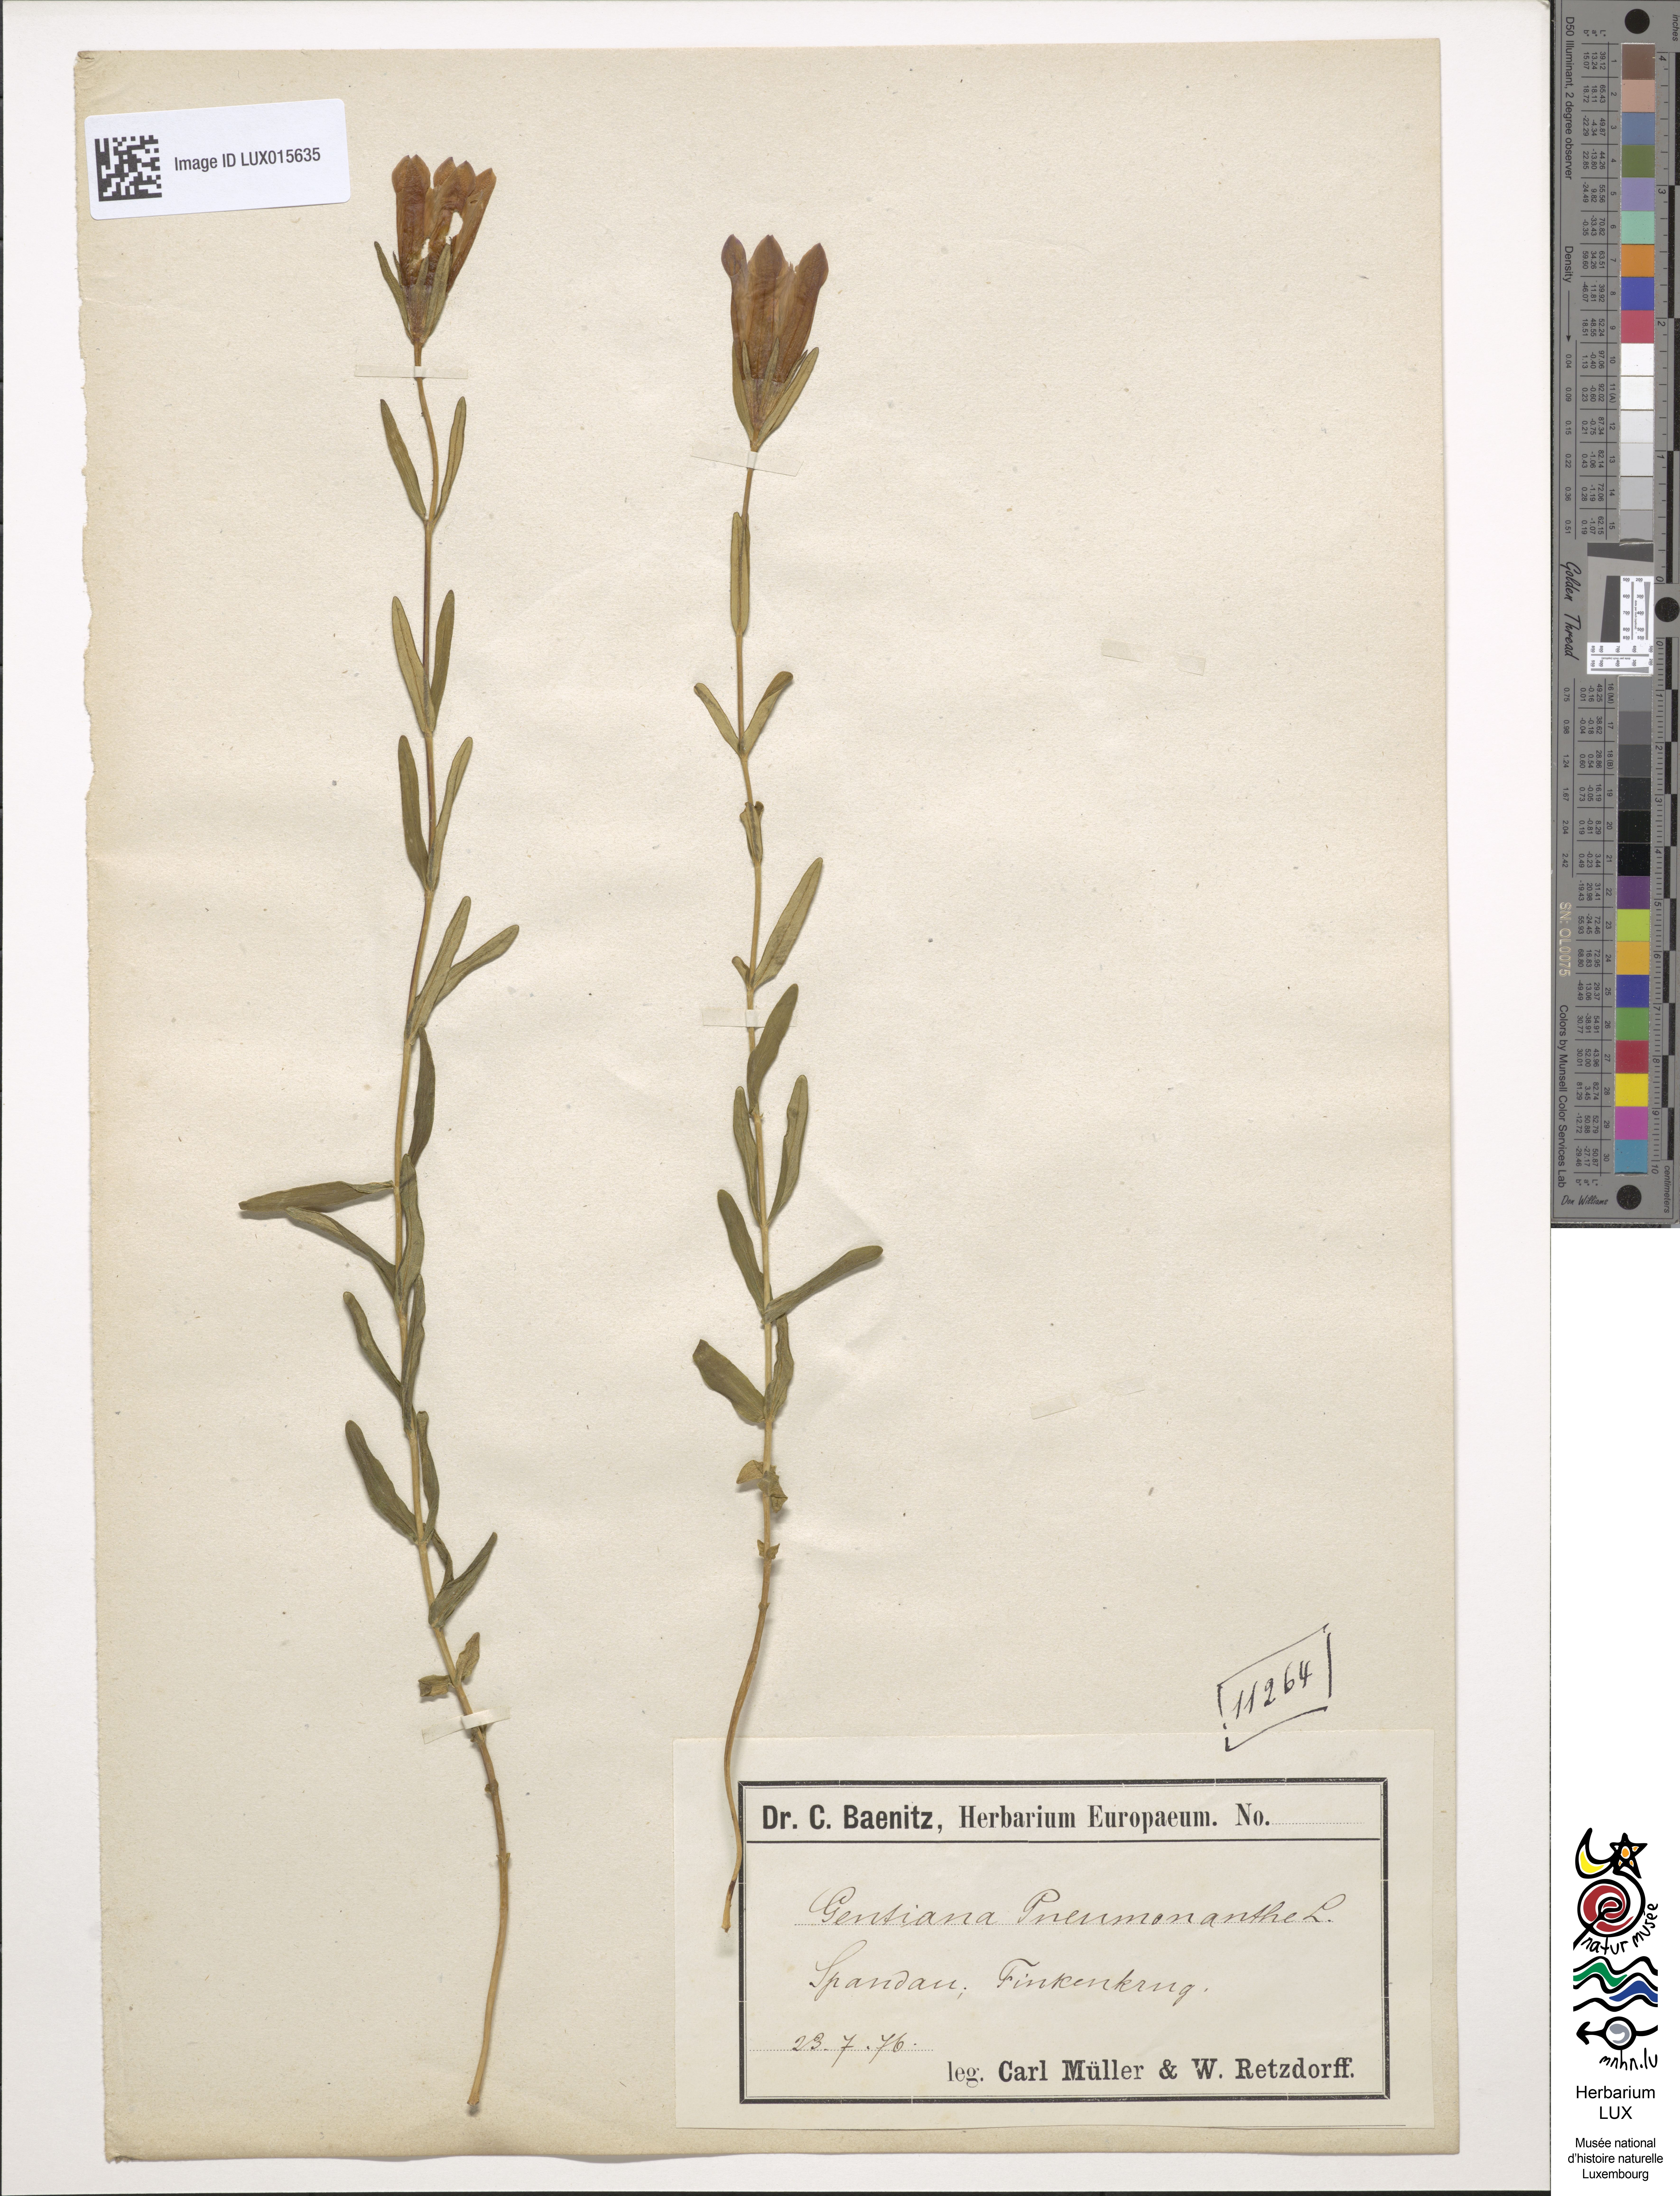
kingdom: Plantae
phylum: Tracheophyta
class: Magnoliopsida
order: Gentianales
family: Gentianaceae
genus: Gentiana
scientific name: Gentiana pneumonanthe
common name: Marsh gentian
